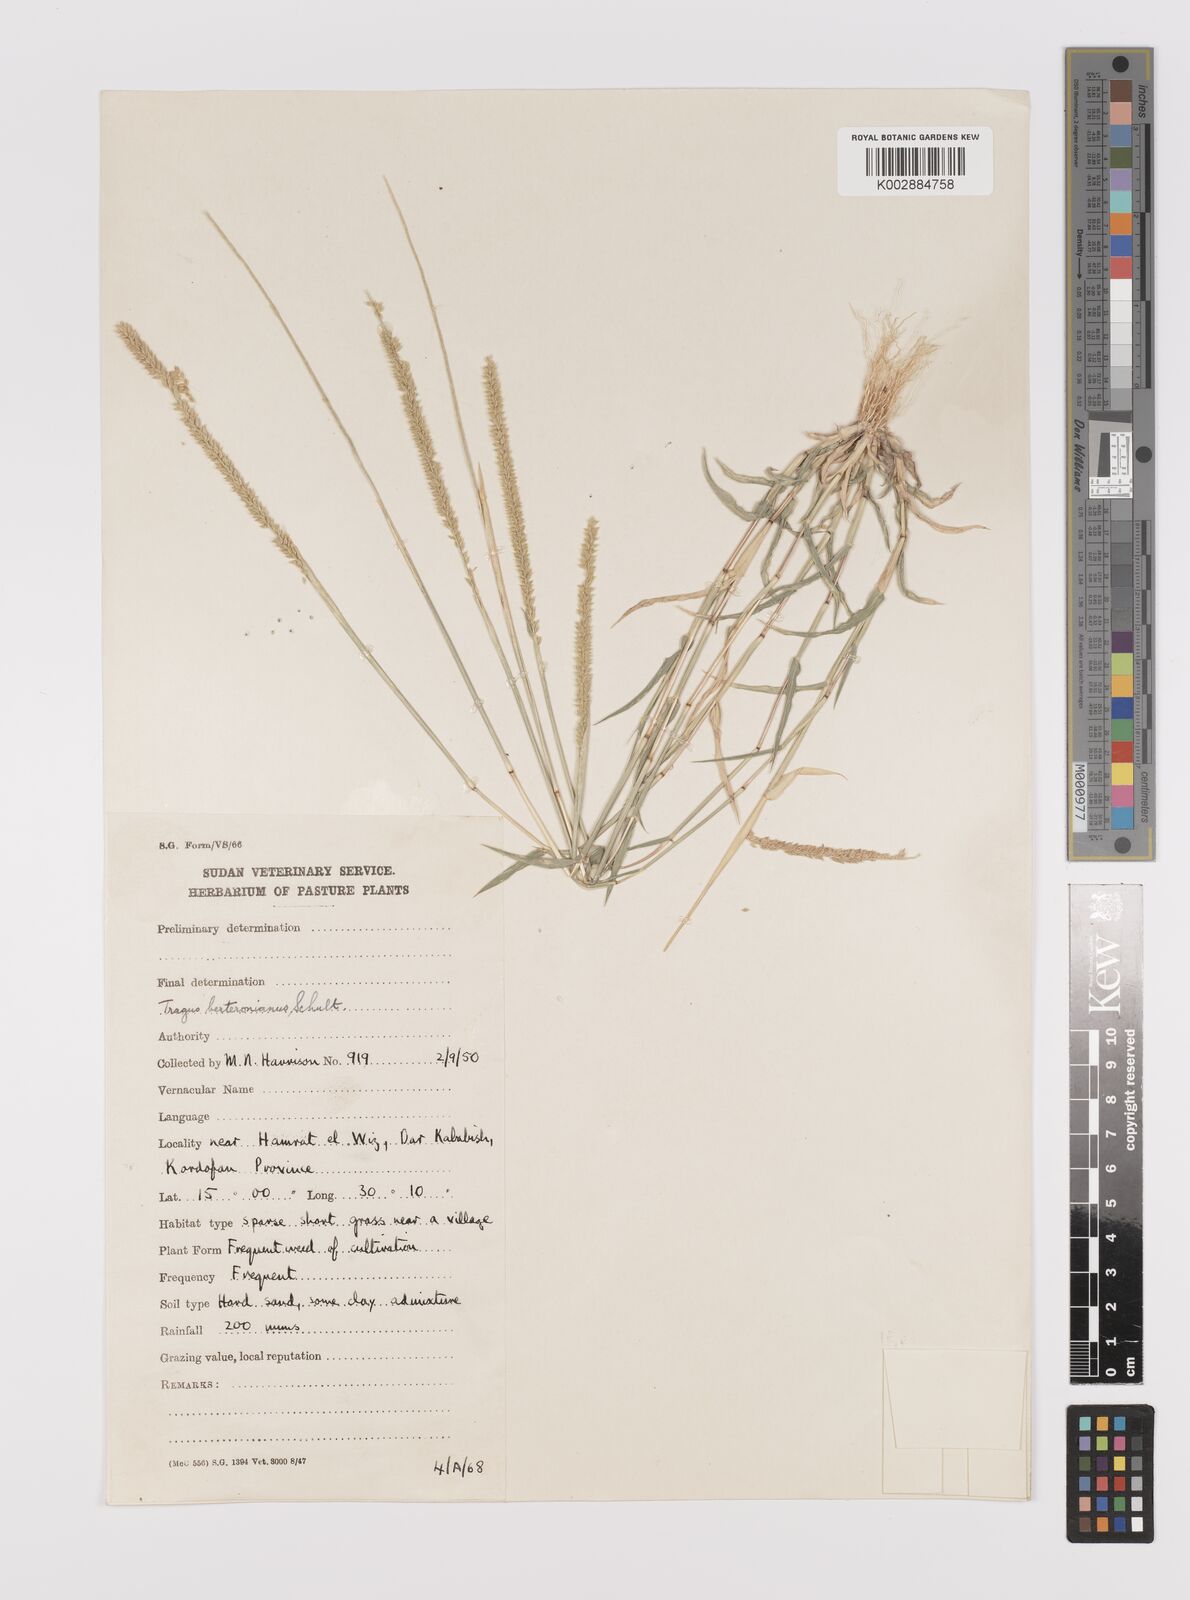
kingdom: Plantae
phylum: Tracheophyta
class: Liliopsida
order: Poales
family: Poaceae
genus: Tragus
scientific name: Tragus berteronianus
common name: African bur-grass
